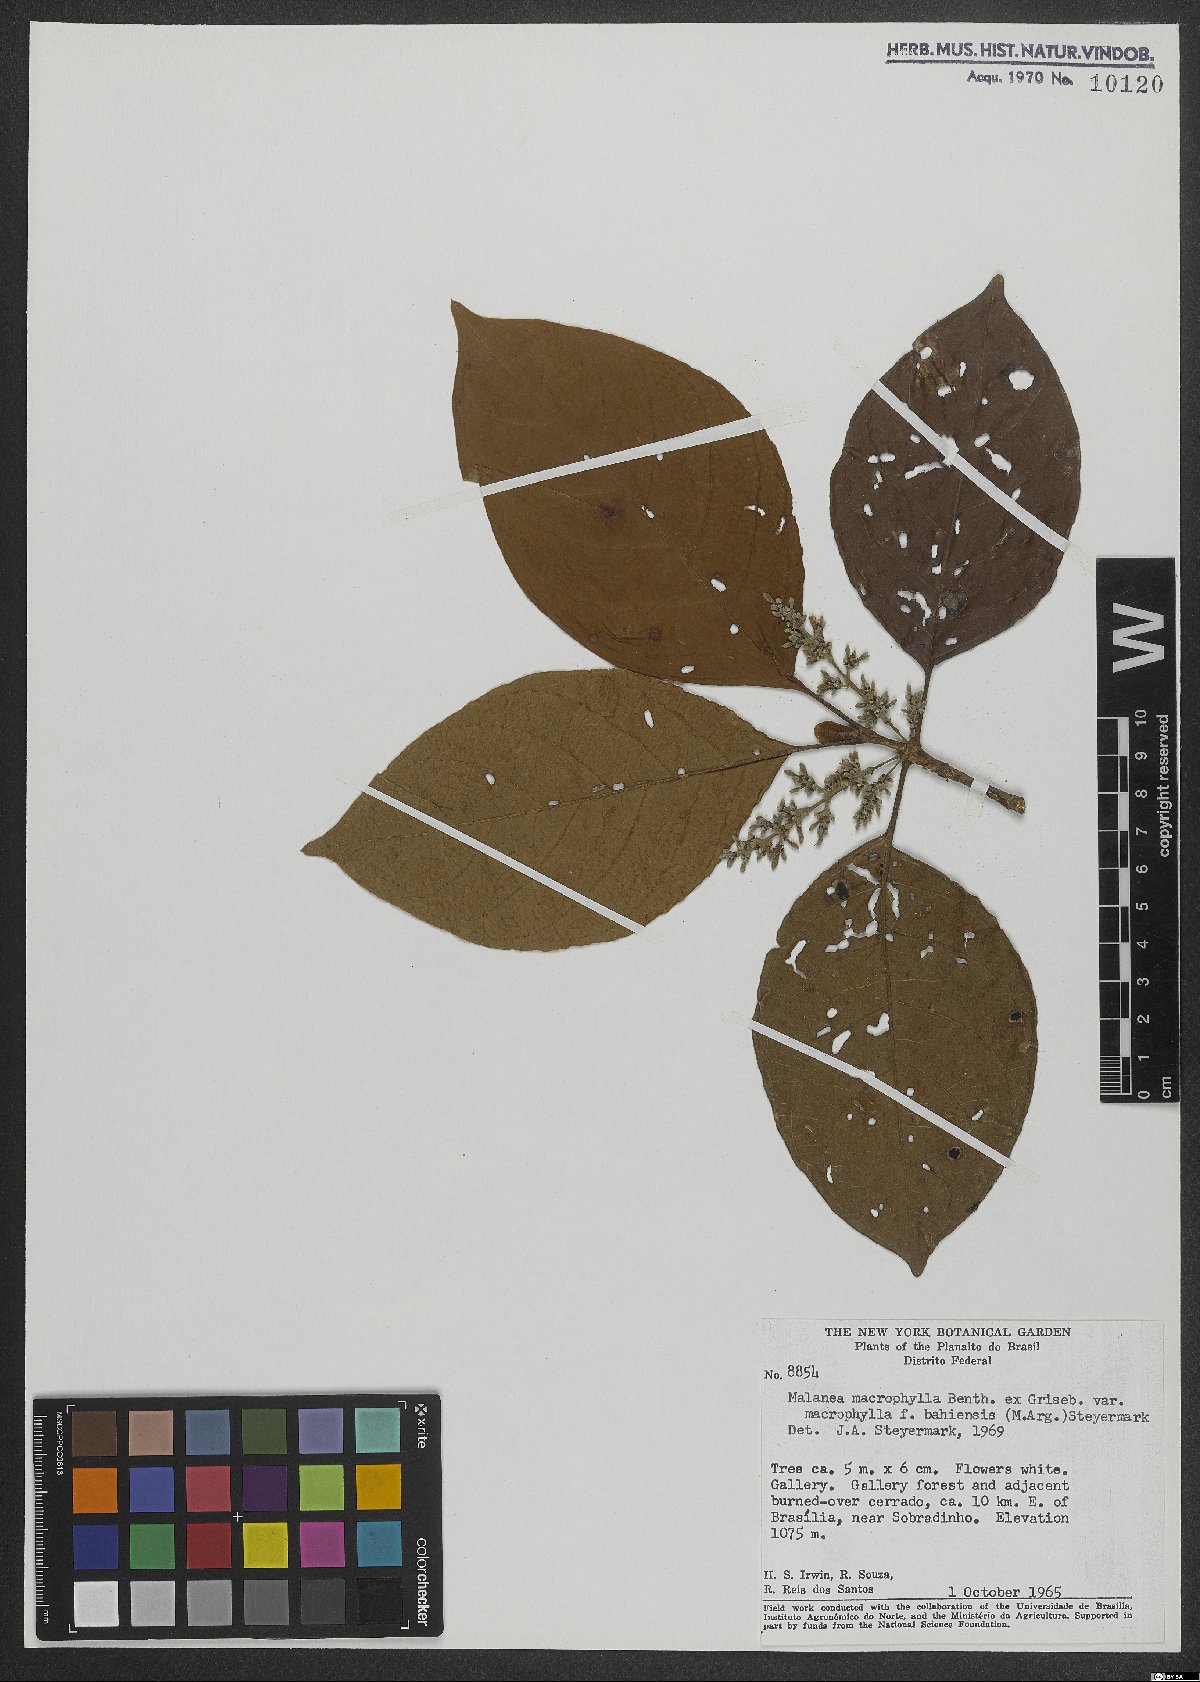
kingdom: Plantae
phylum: Tracheophyta
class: Magnoliopsida
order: Gentianales
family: Rubiaceae
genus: Malanea
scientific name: Malanea glabra
